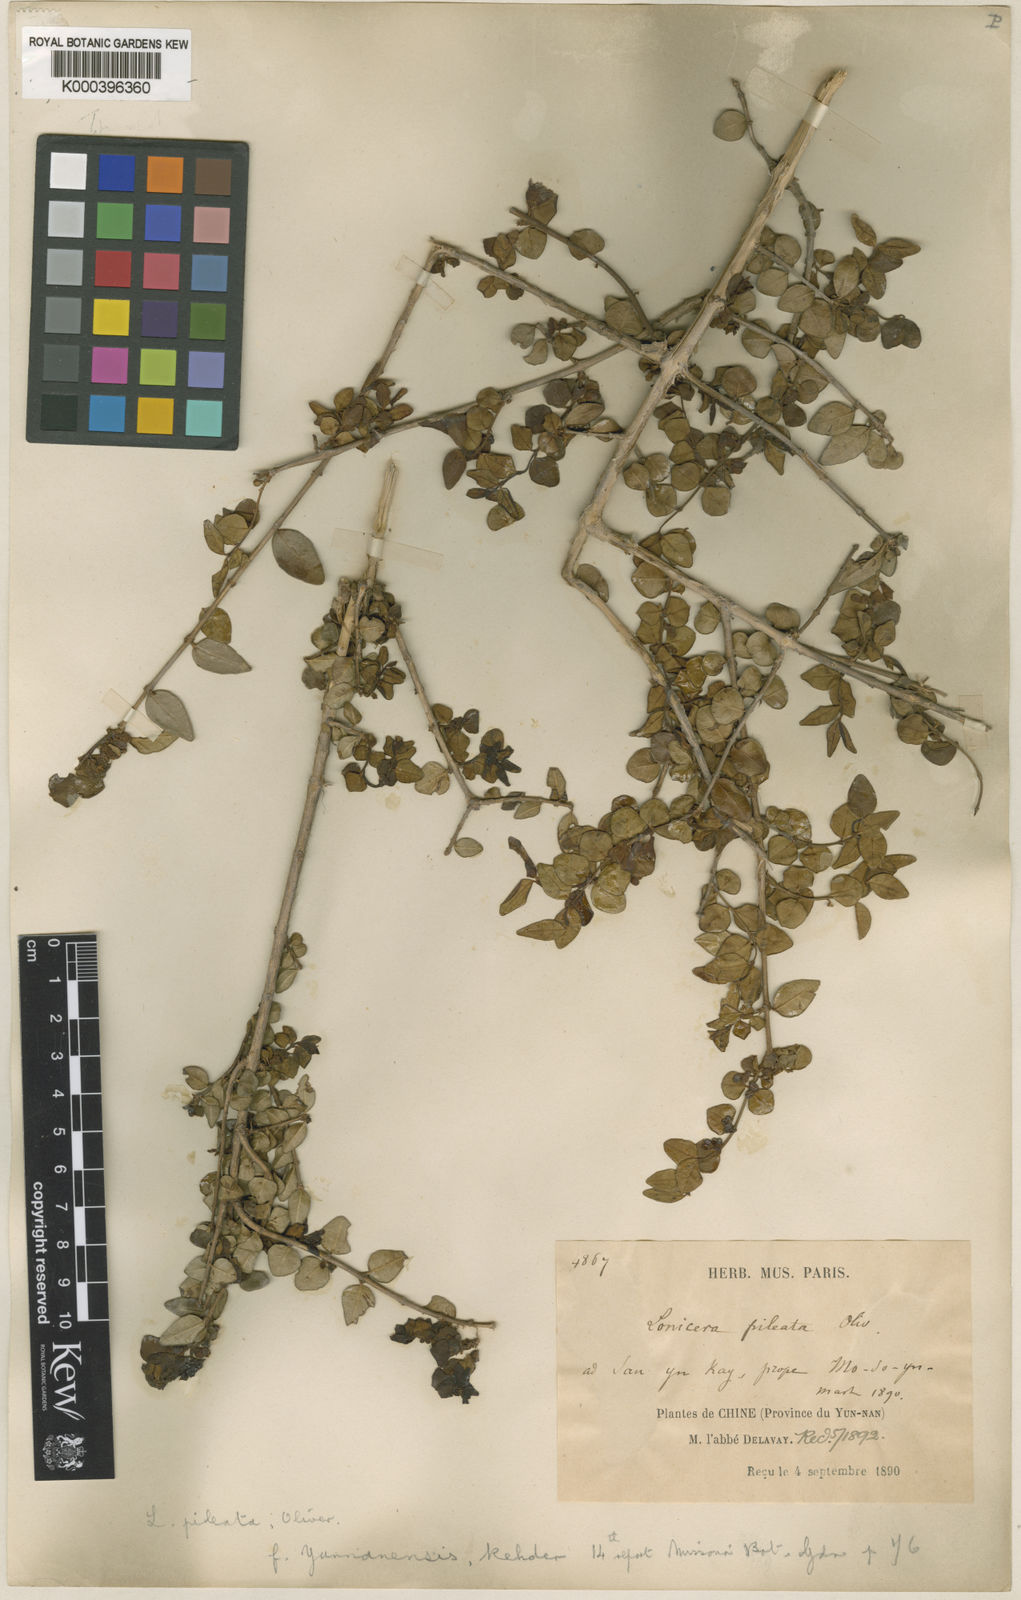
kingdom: Plantae
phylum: Tracheophyta
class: Magnoliopsida
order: Dipsacales
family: Caprifoliaceae
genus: Lonicera
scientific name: Lonicera pileata
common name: Box-leaved honeysuckle
